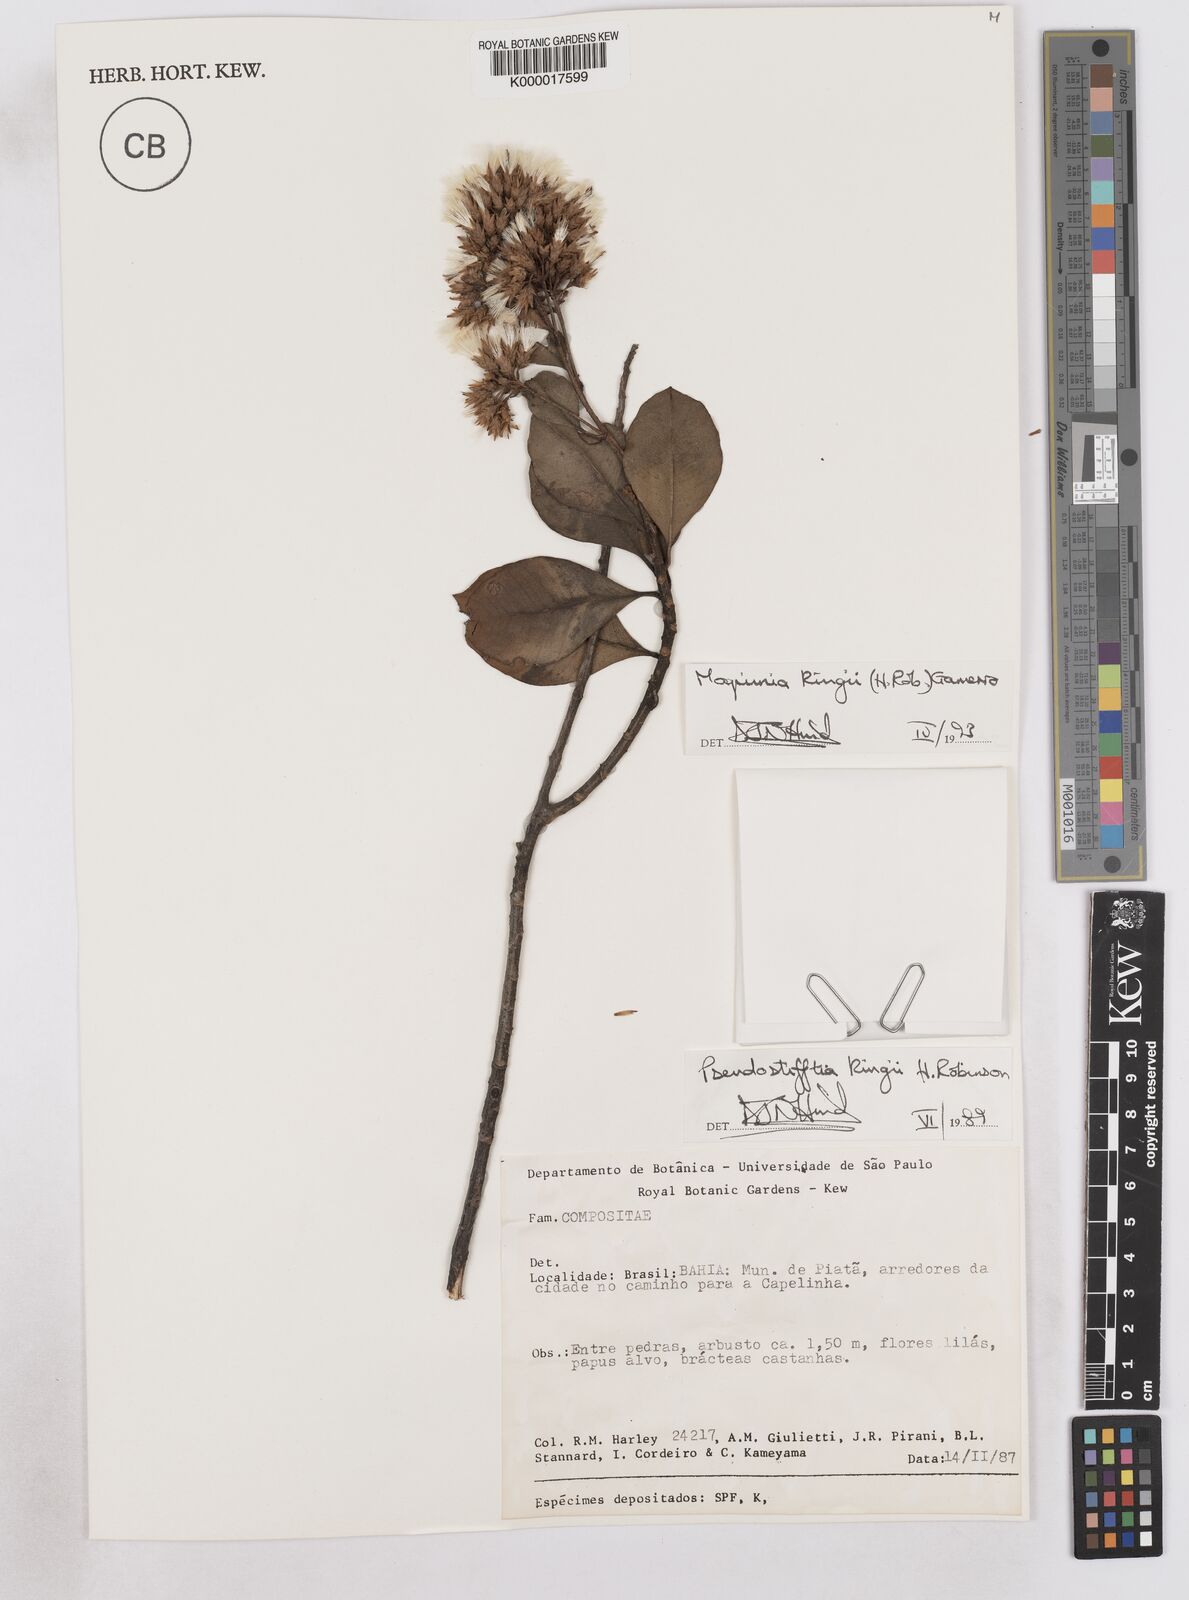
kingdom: Plantae
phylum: Tracheophyta
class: Magnoliopsida
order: Asterales
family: Asteraceae
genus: Pseudostifftia
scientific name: Pseudostifftia kingii
